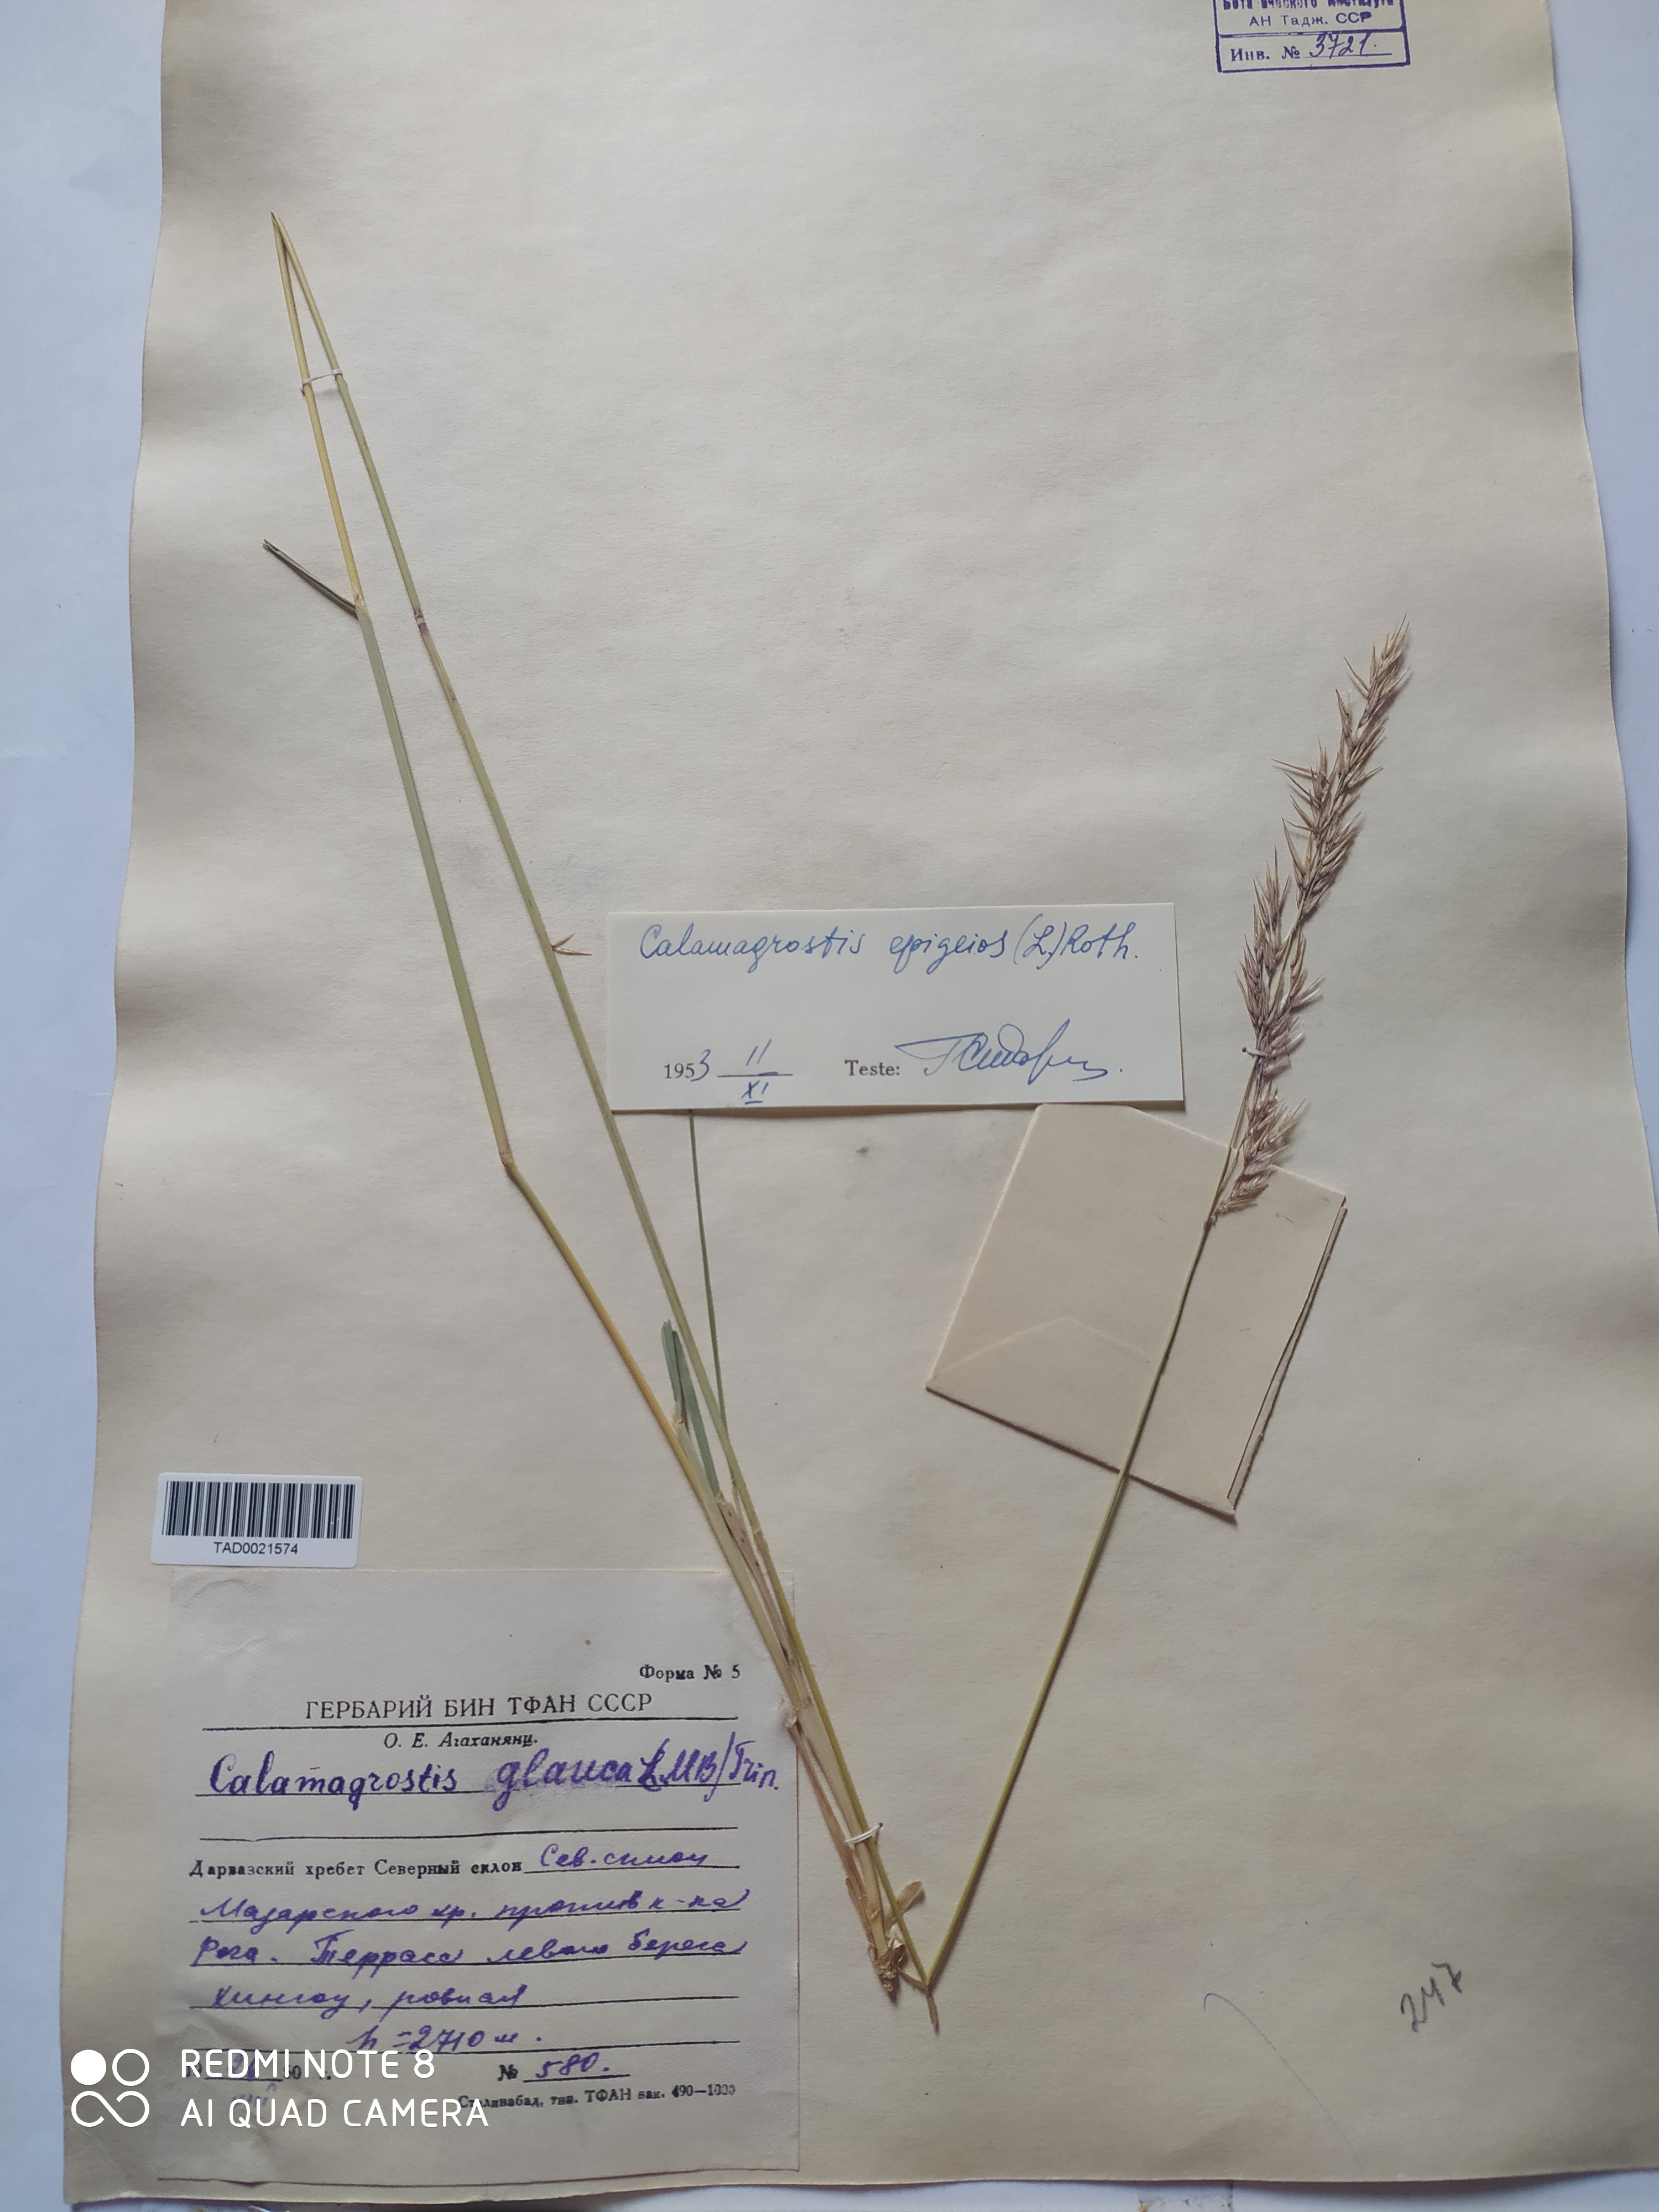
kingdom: Plantae
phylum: Tracheophyta
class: Liliopsida
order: Poales
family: Poaceae
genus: Calamagrostis
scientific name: Calamagrostis pseudophragmites
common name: Coastal small-reed
